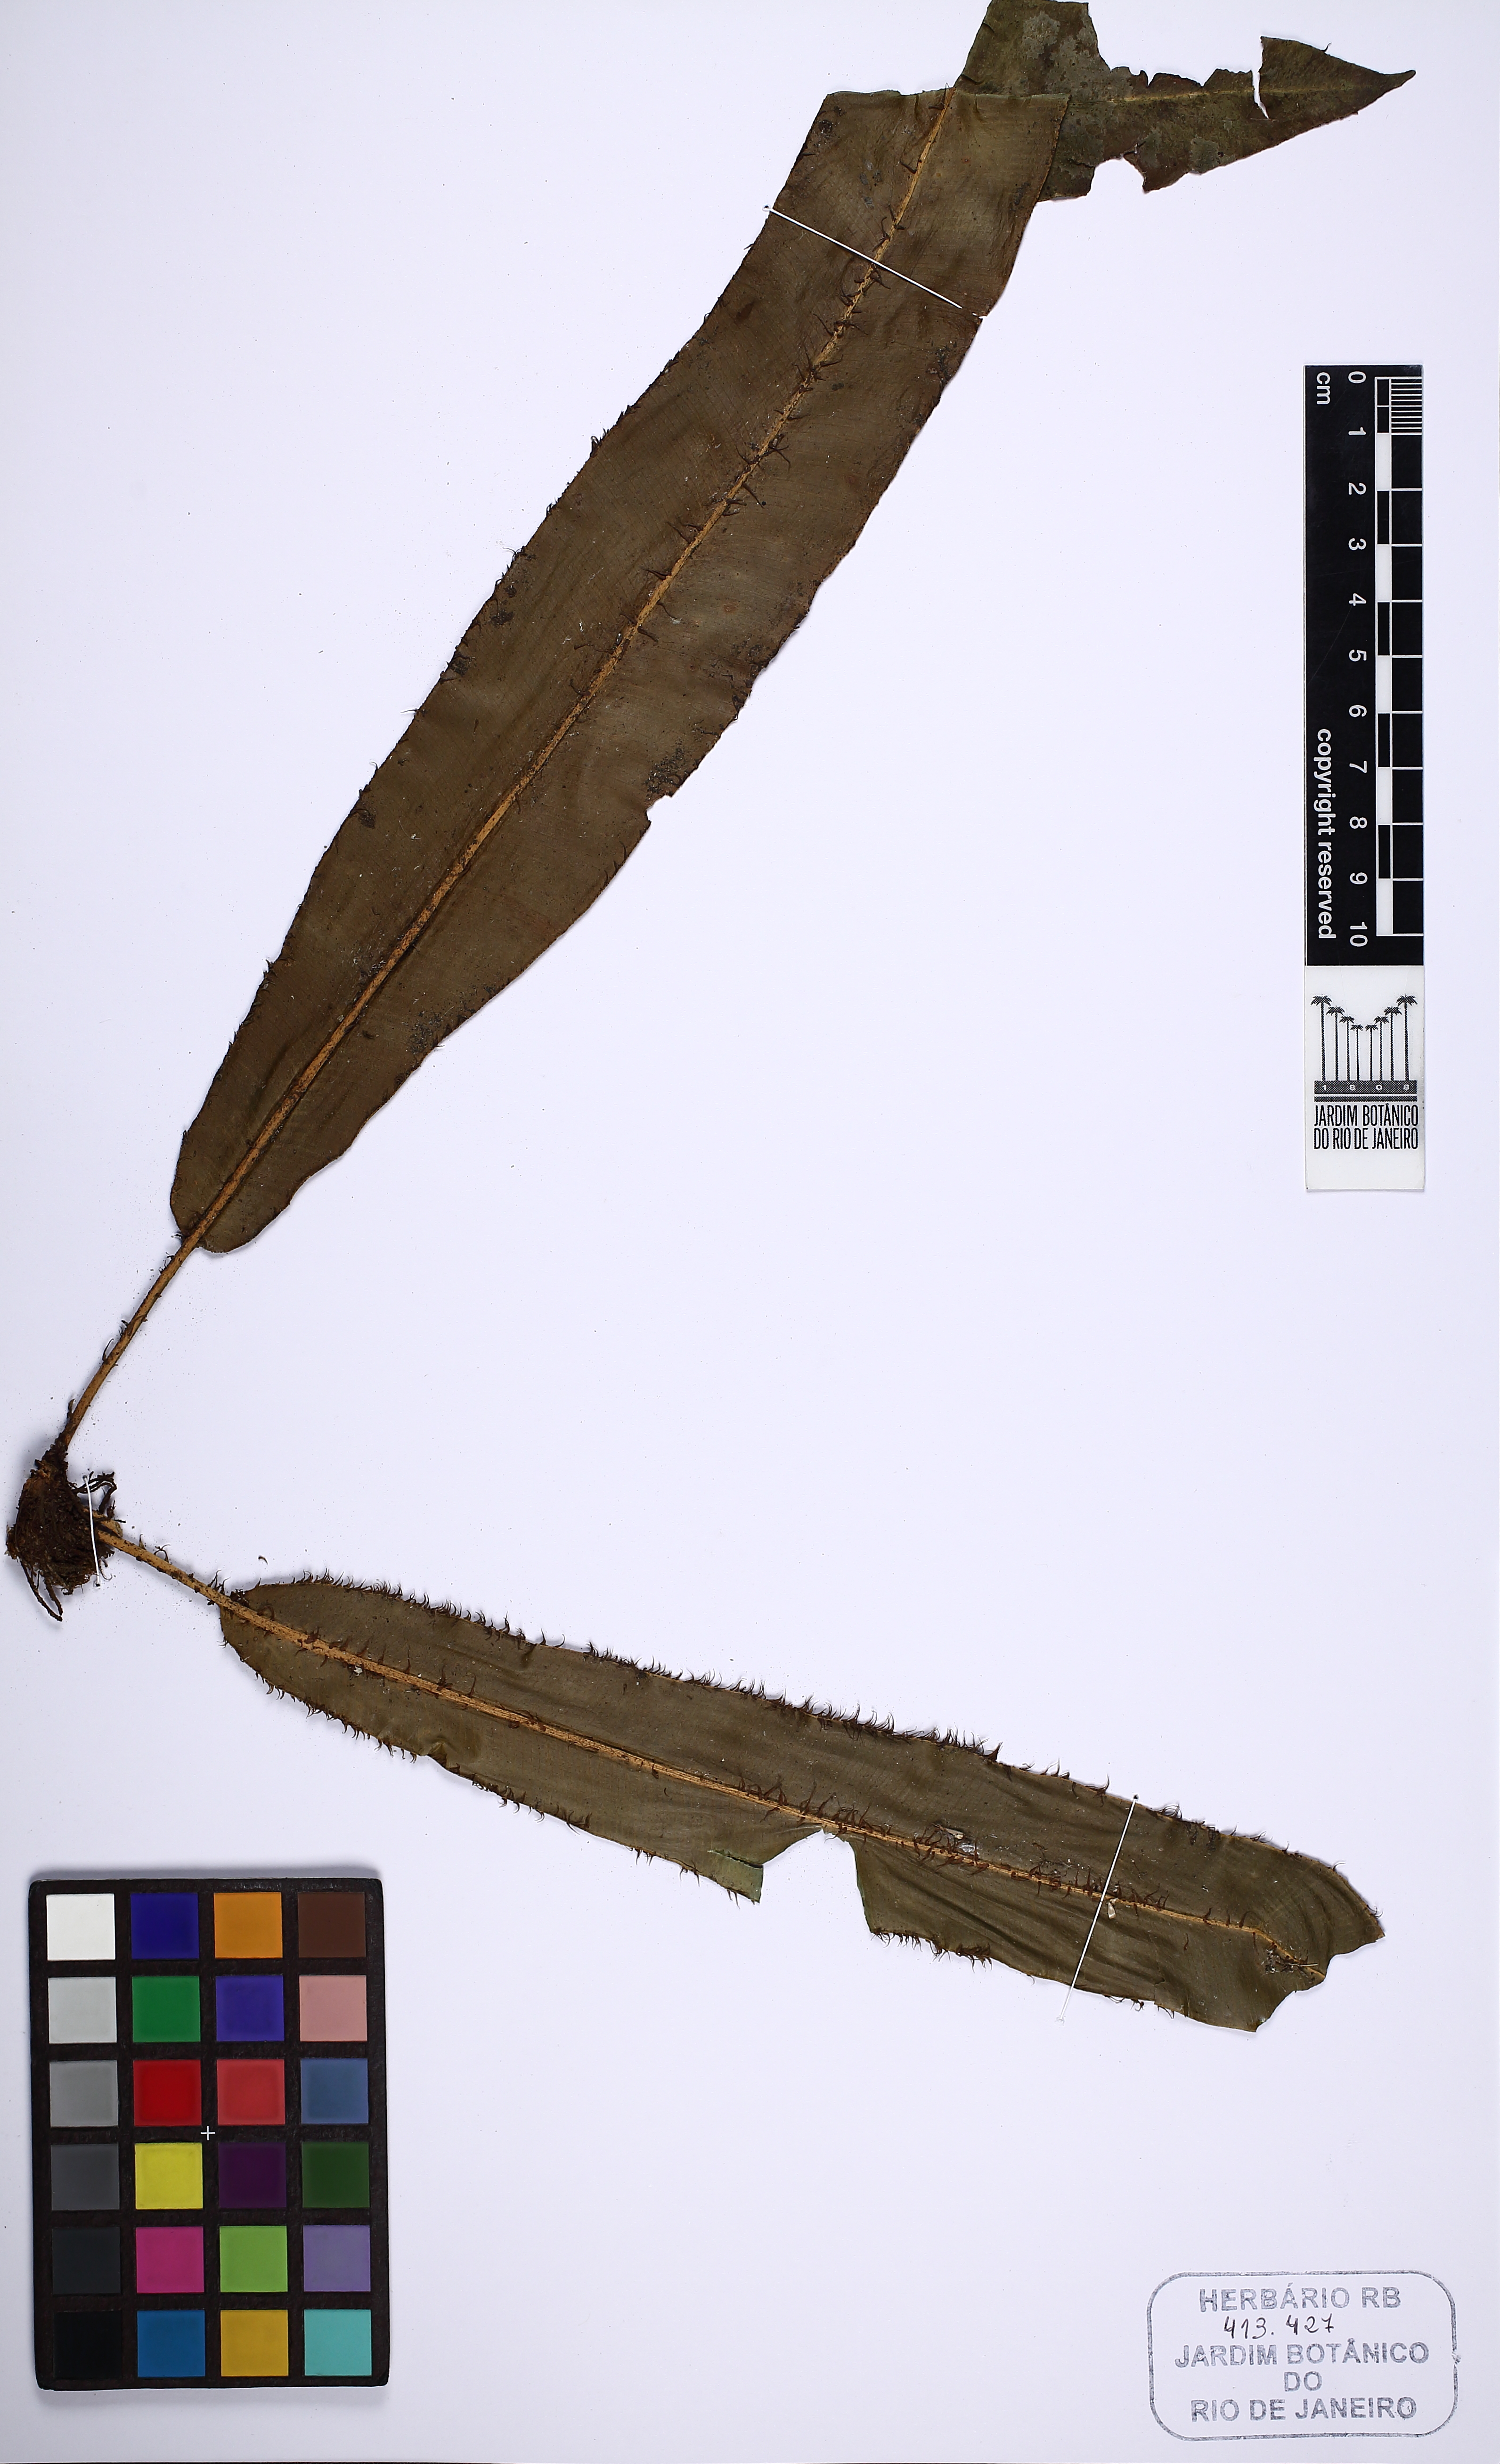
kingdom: Plantae
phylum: Tracheophyta
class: Polypodiopsida
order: Polypodiales
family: Dryopteridaceae
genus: Elaphoglossum
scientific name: Elaphoglossum scolopendrifolium
